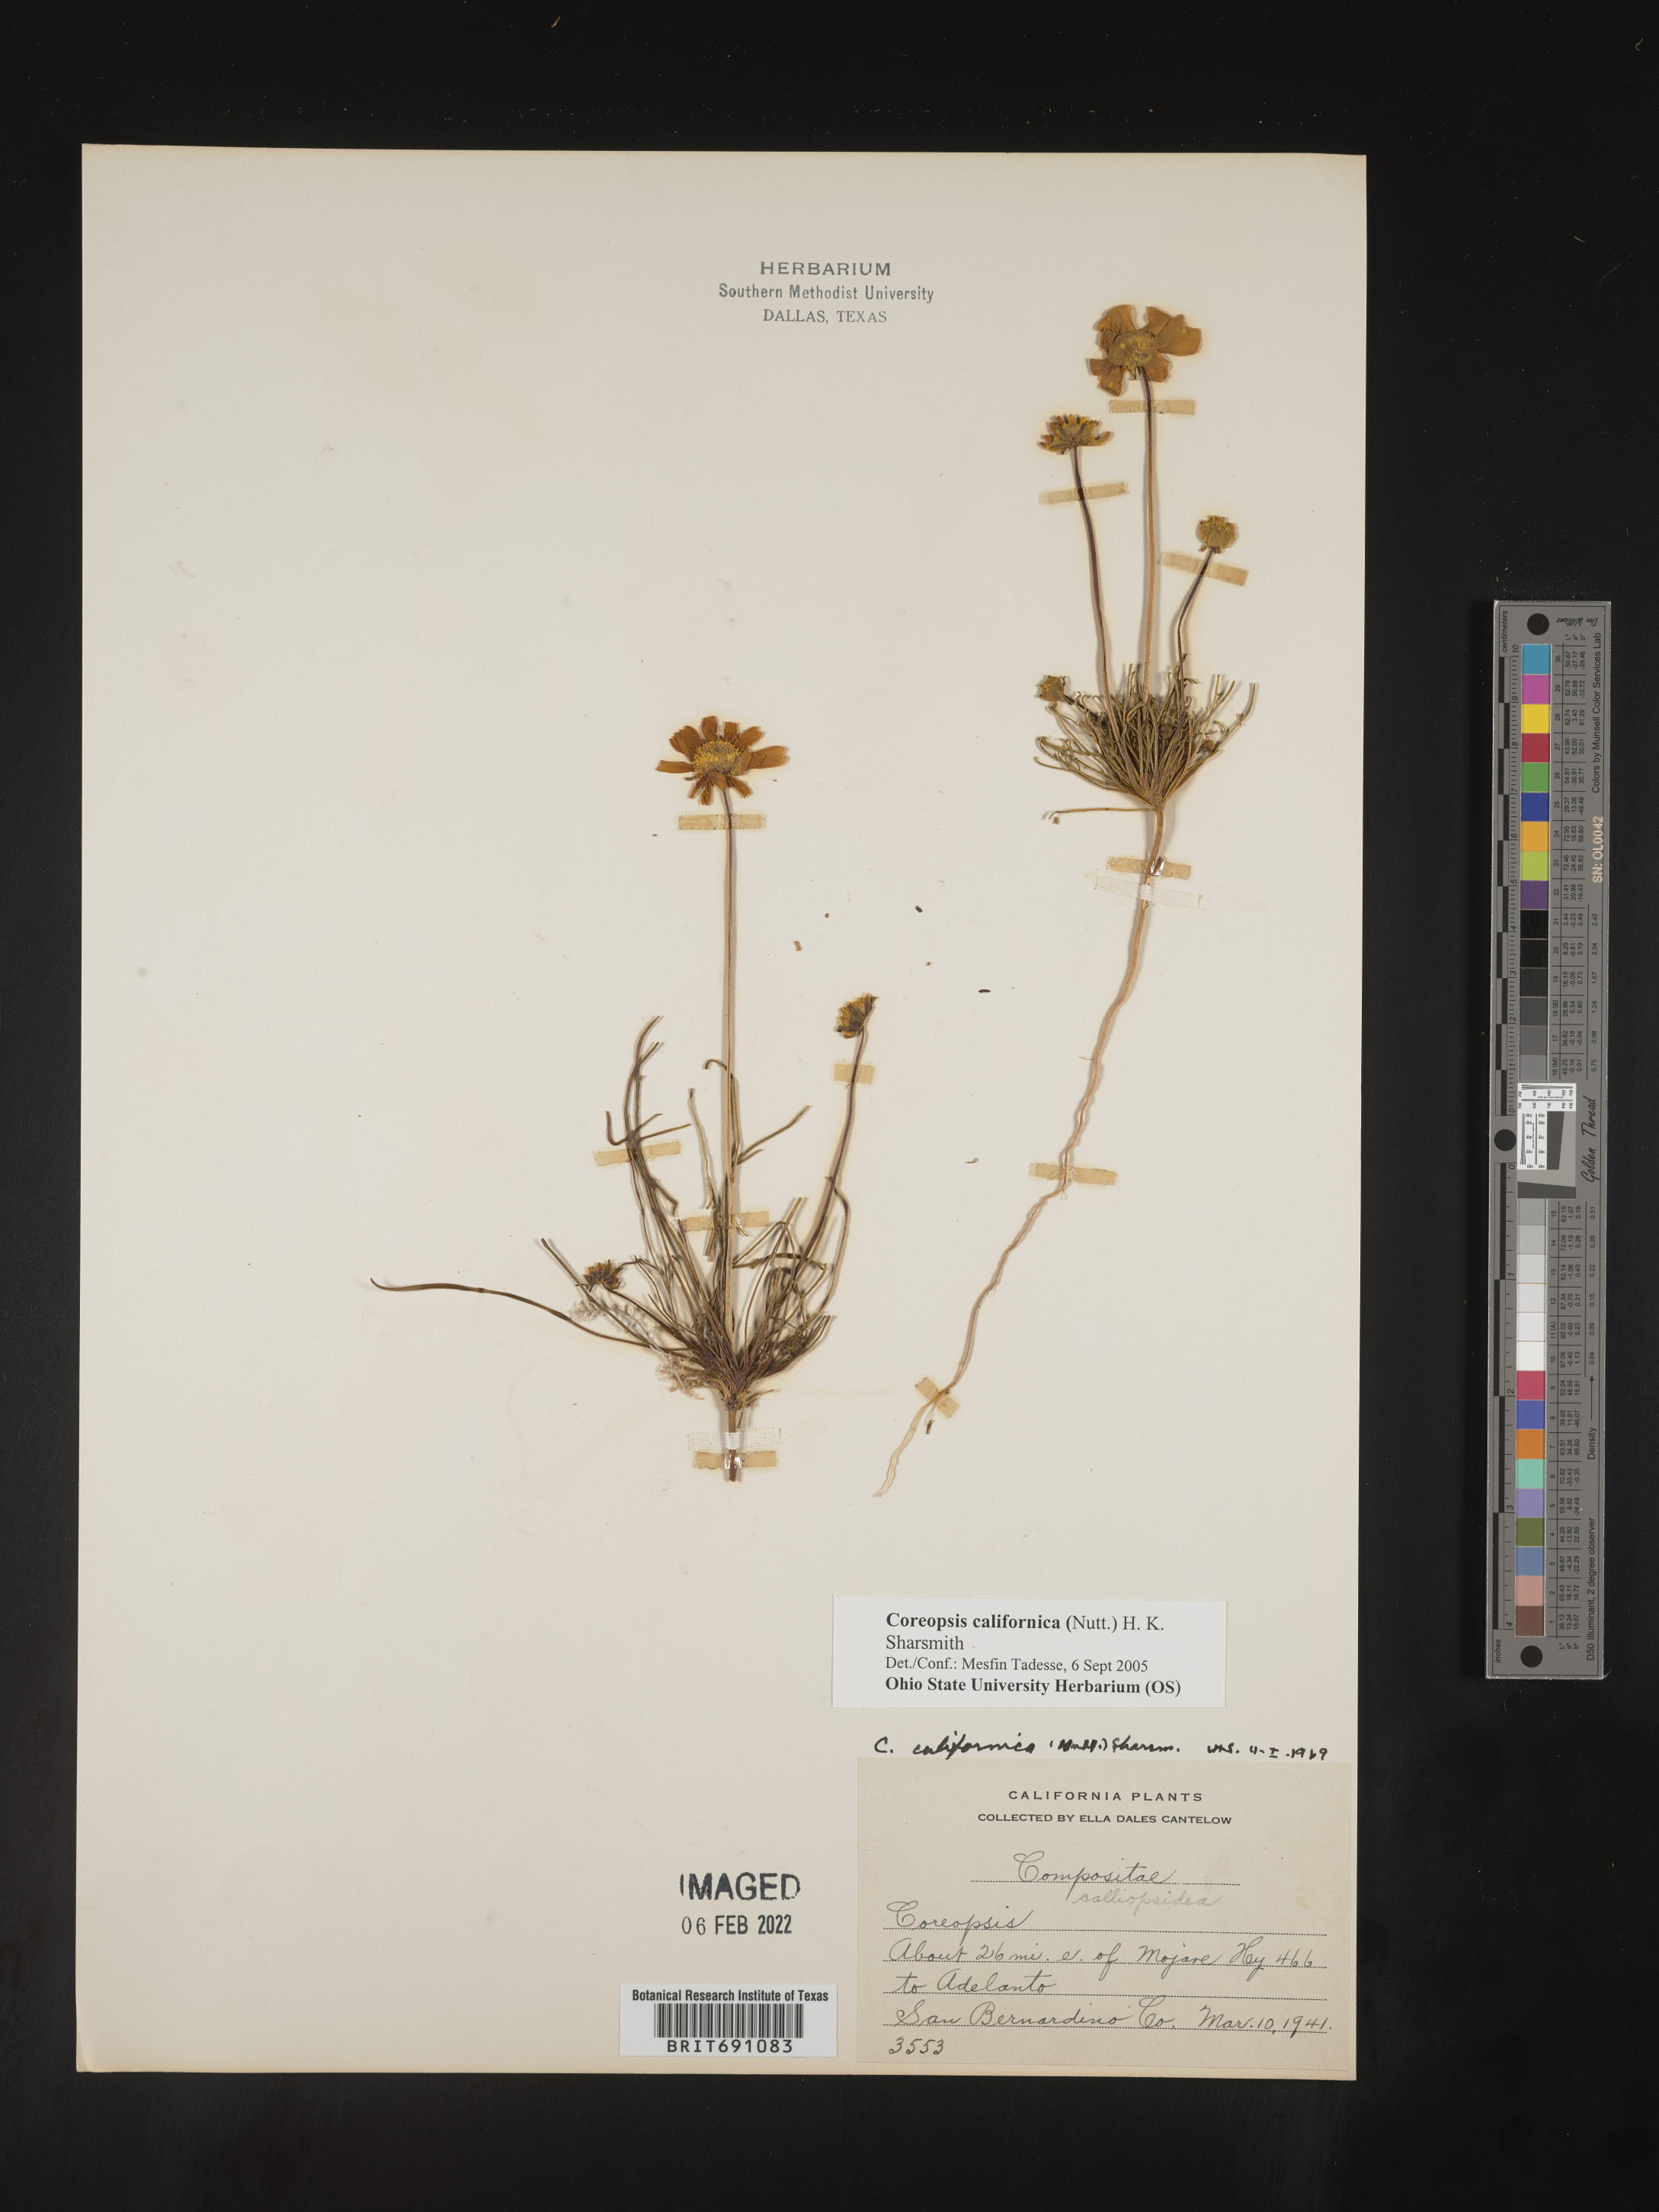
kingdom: Plantae
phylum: Tracheophyta
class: Magnoliopsida
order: Asterales
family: Asteraceae
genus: Coreopsis
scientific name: Coreopsis californica
